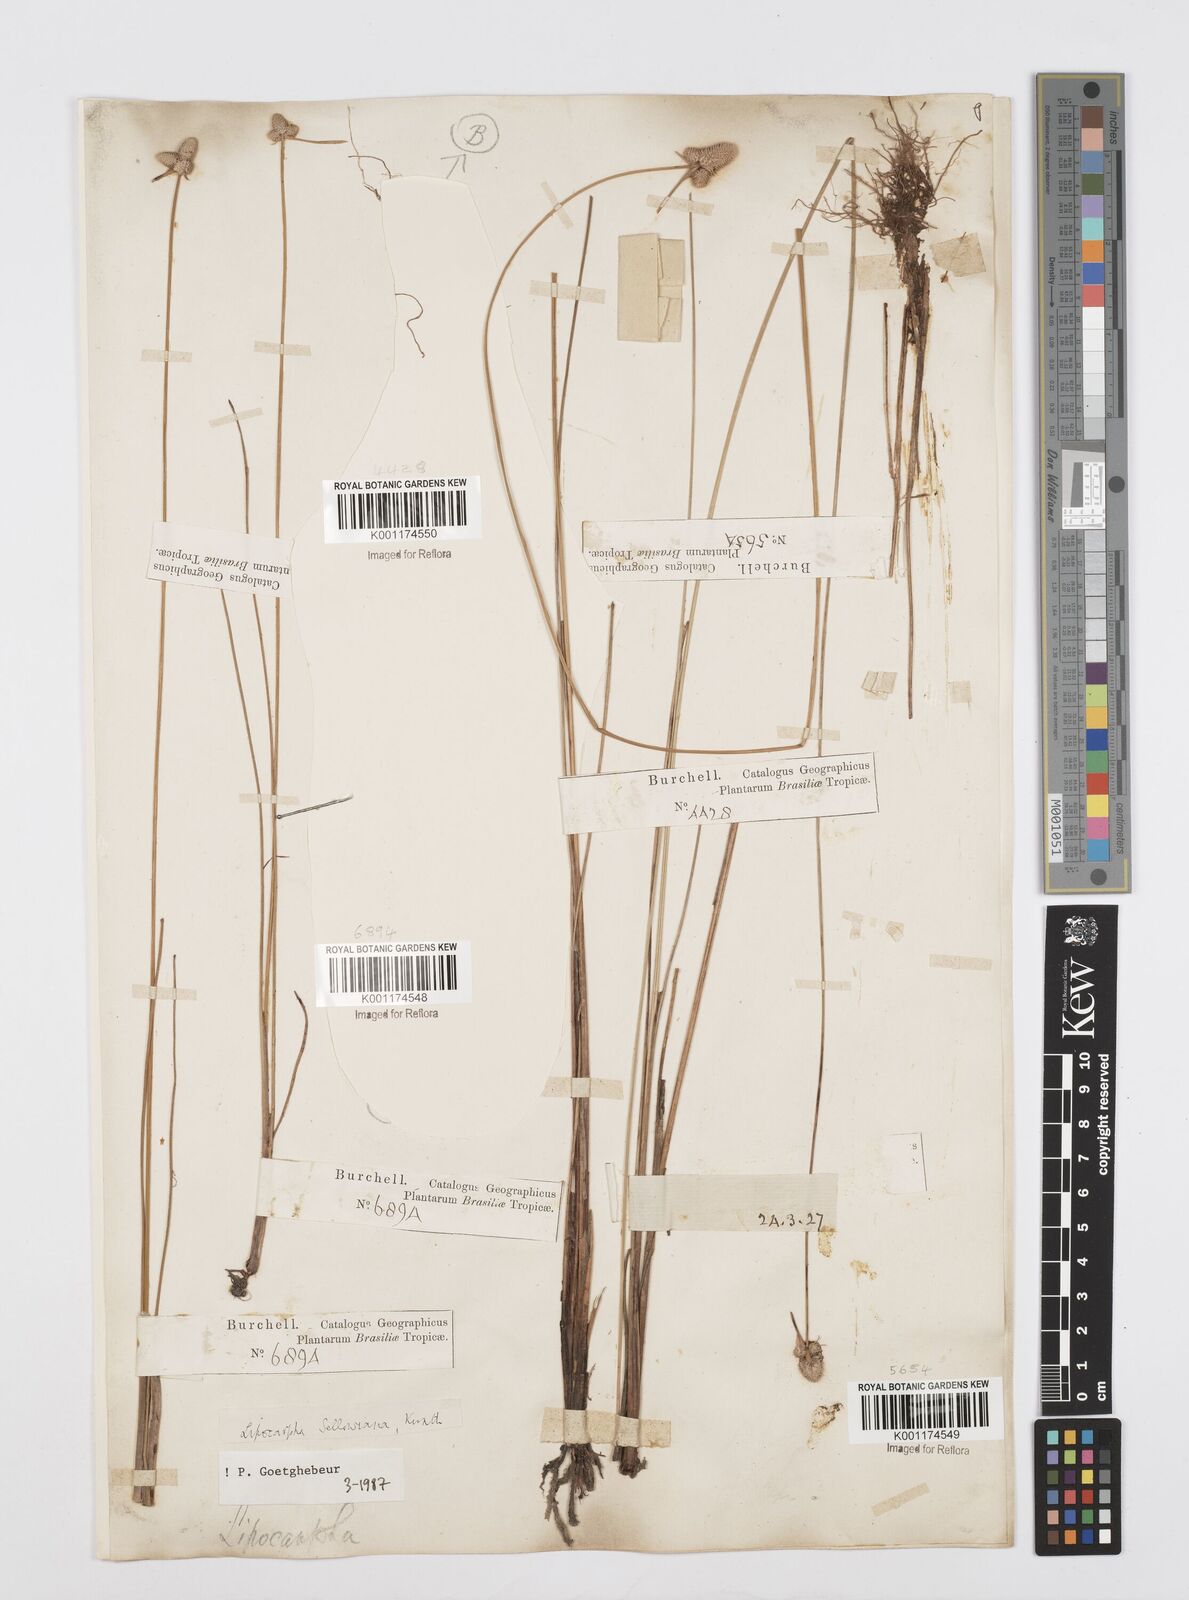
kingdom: Plantae
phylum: Tracheophyta
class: Liliopsida
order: Poales
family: Cyperaceae
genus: Cyperus
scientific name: Cyperus lanceolatus
